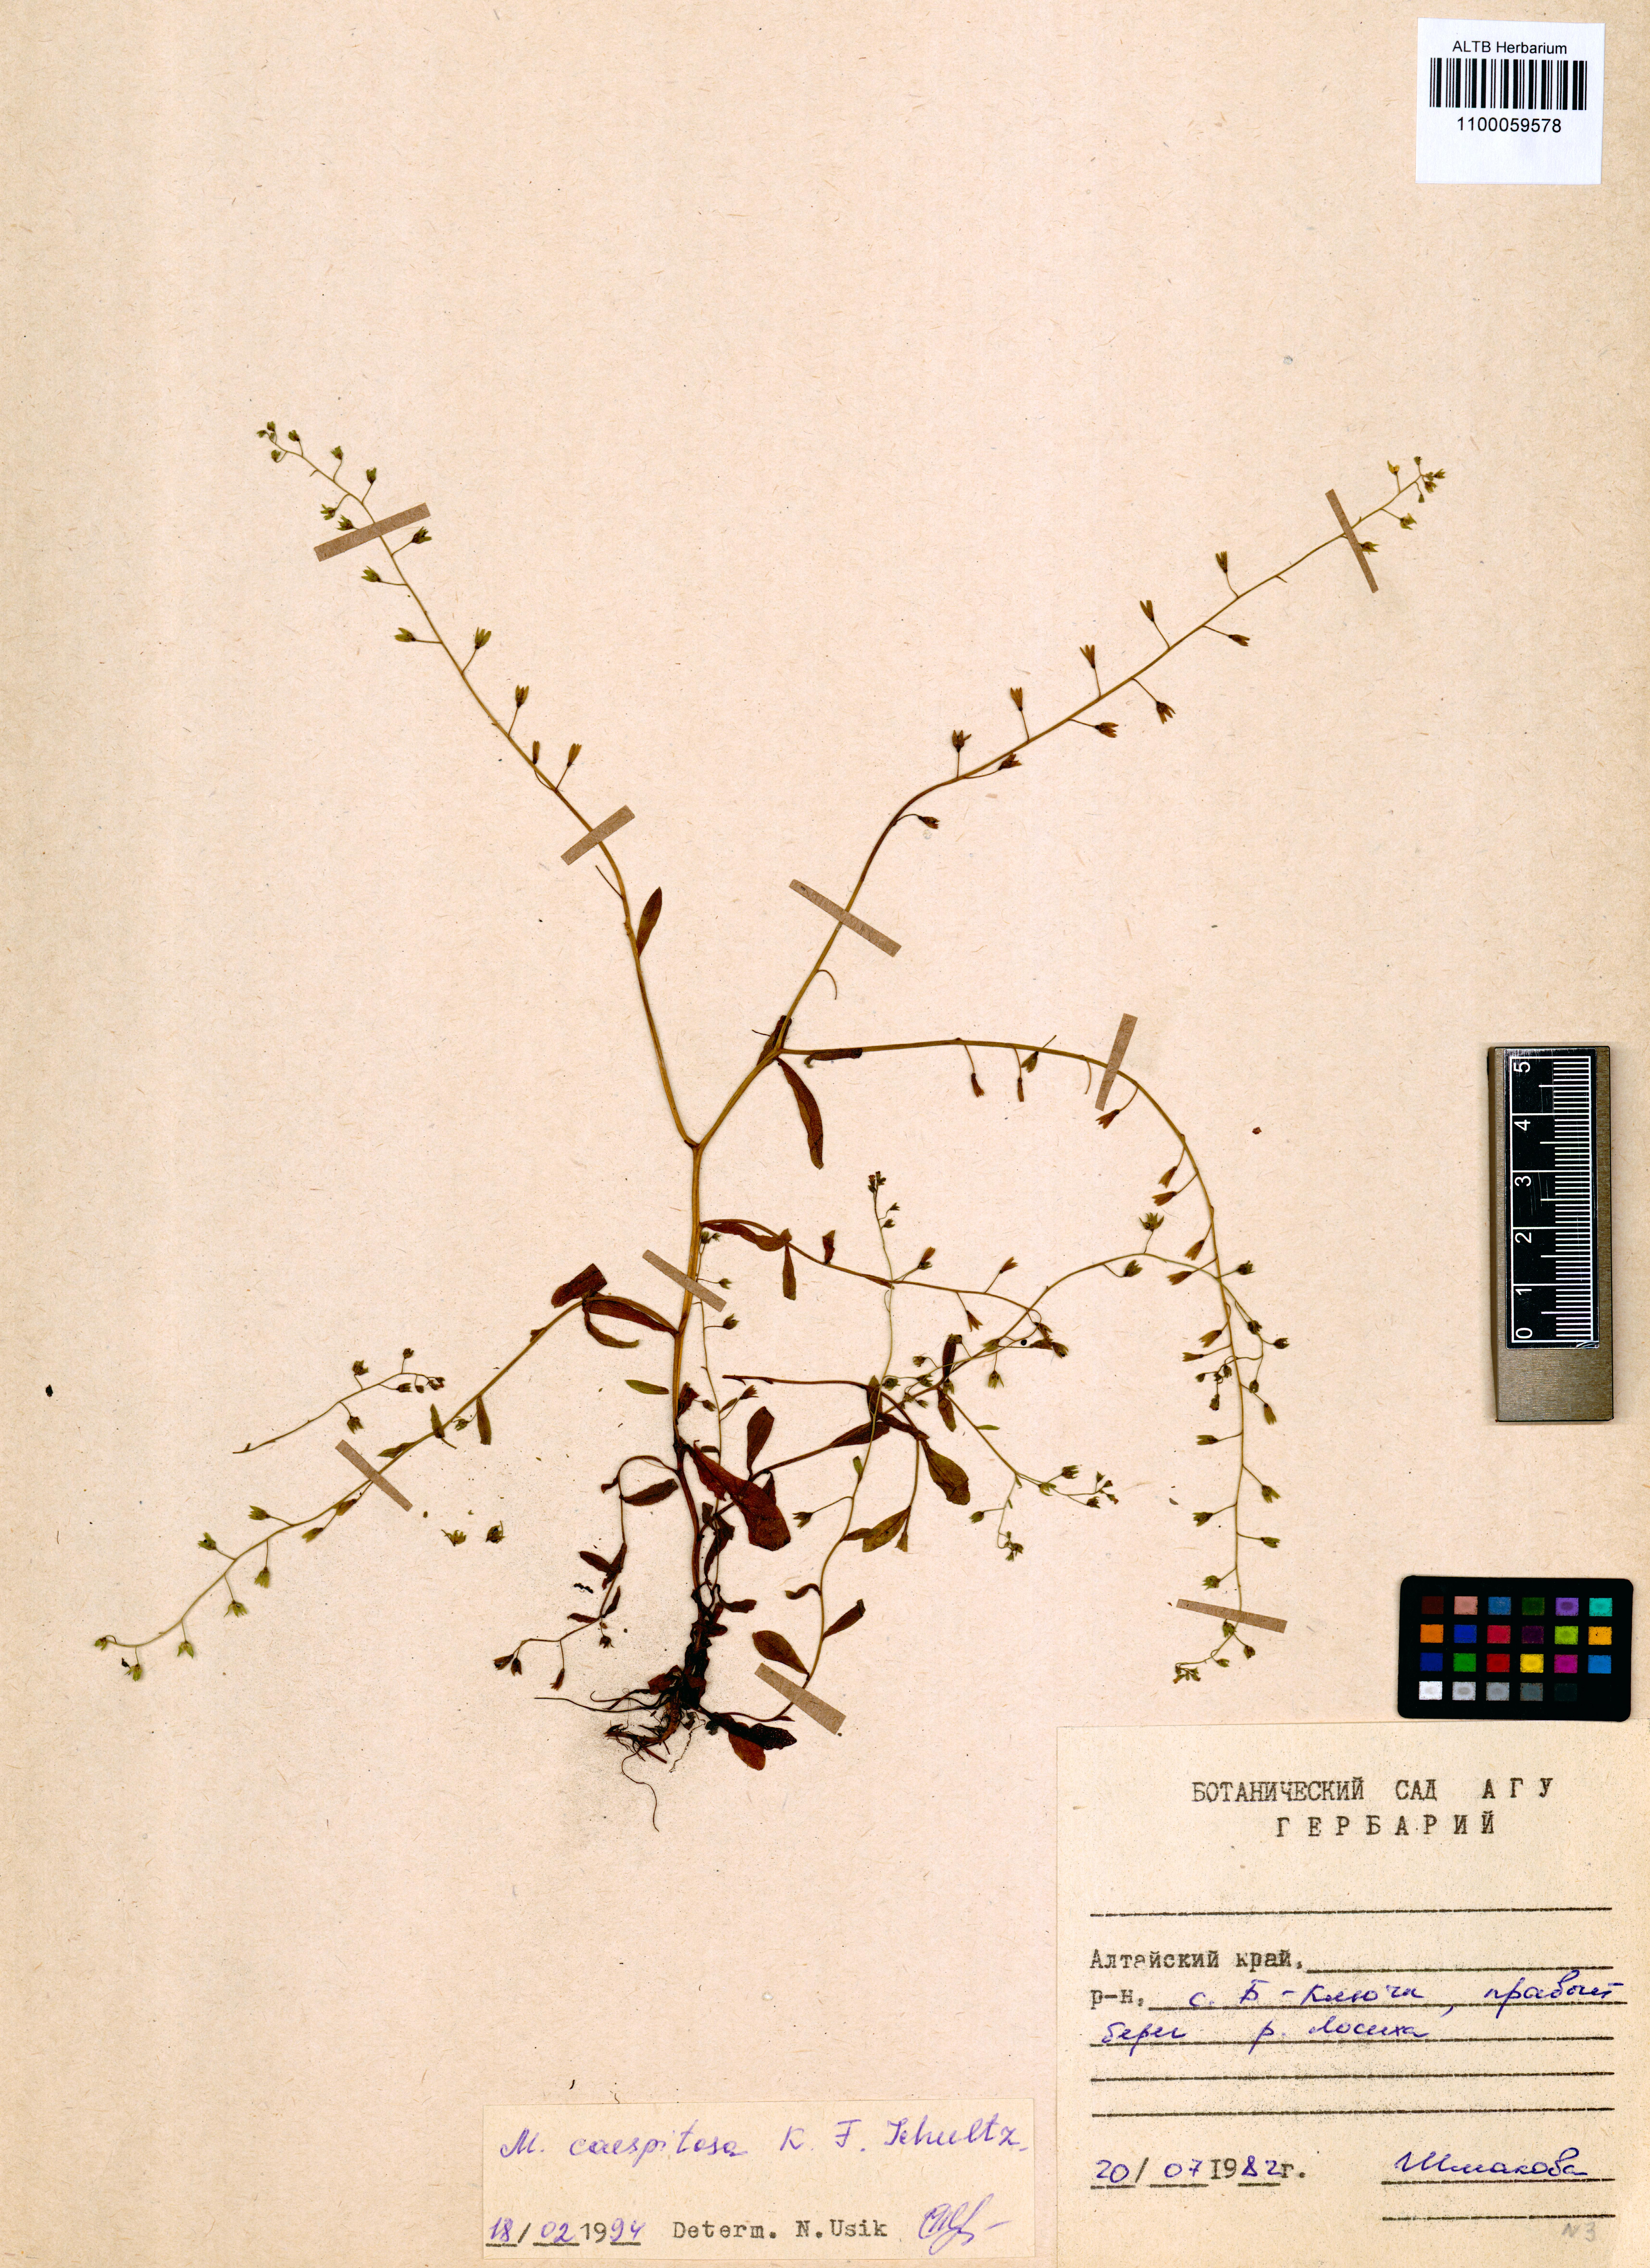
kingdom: Plantae
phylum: Tracheophyta
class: Magnoliopsida
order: Boraginales
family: Boraginaceae
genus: Myosotis
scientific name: Myosotis laxa
